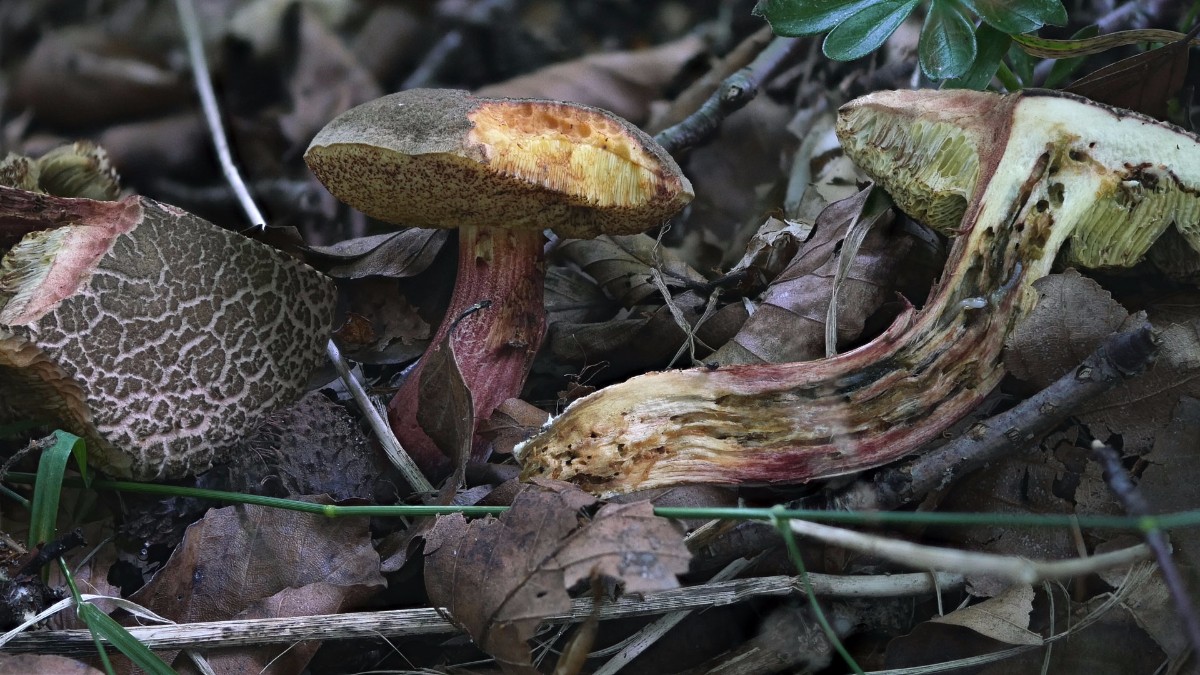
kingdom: Fungi
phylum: Basidiomycota
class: Agaricomycetes
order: Boletales
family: Boletaceae
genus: Xerocomellus
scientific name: Xerocomellus chrysenteron
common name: rødsprukken rørhat
